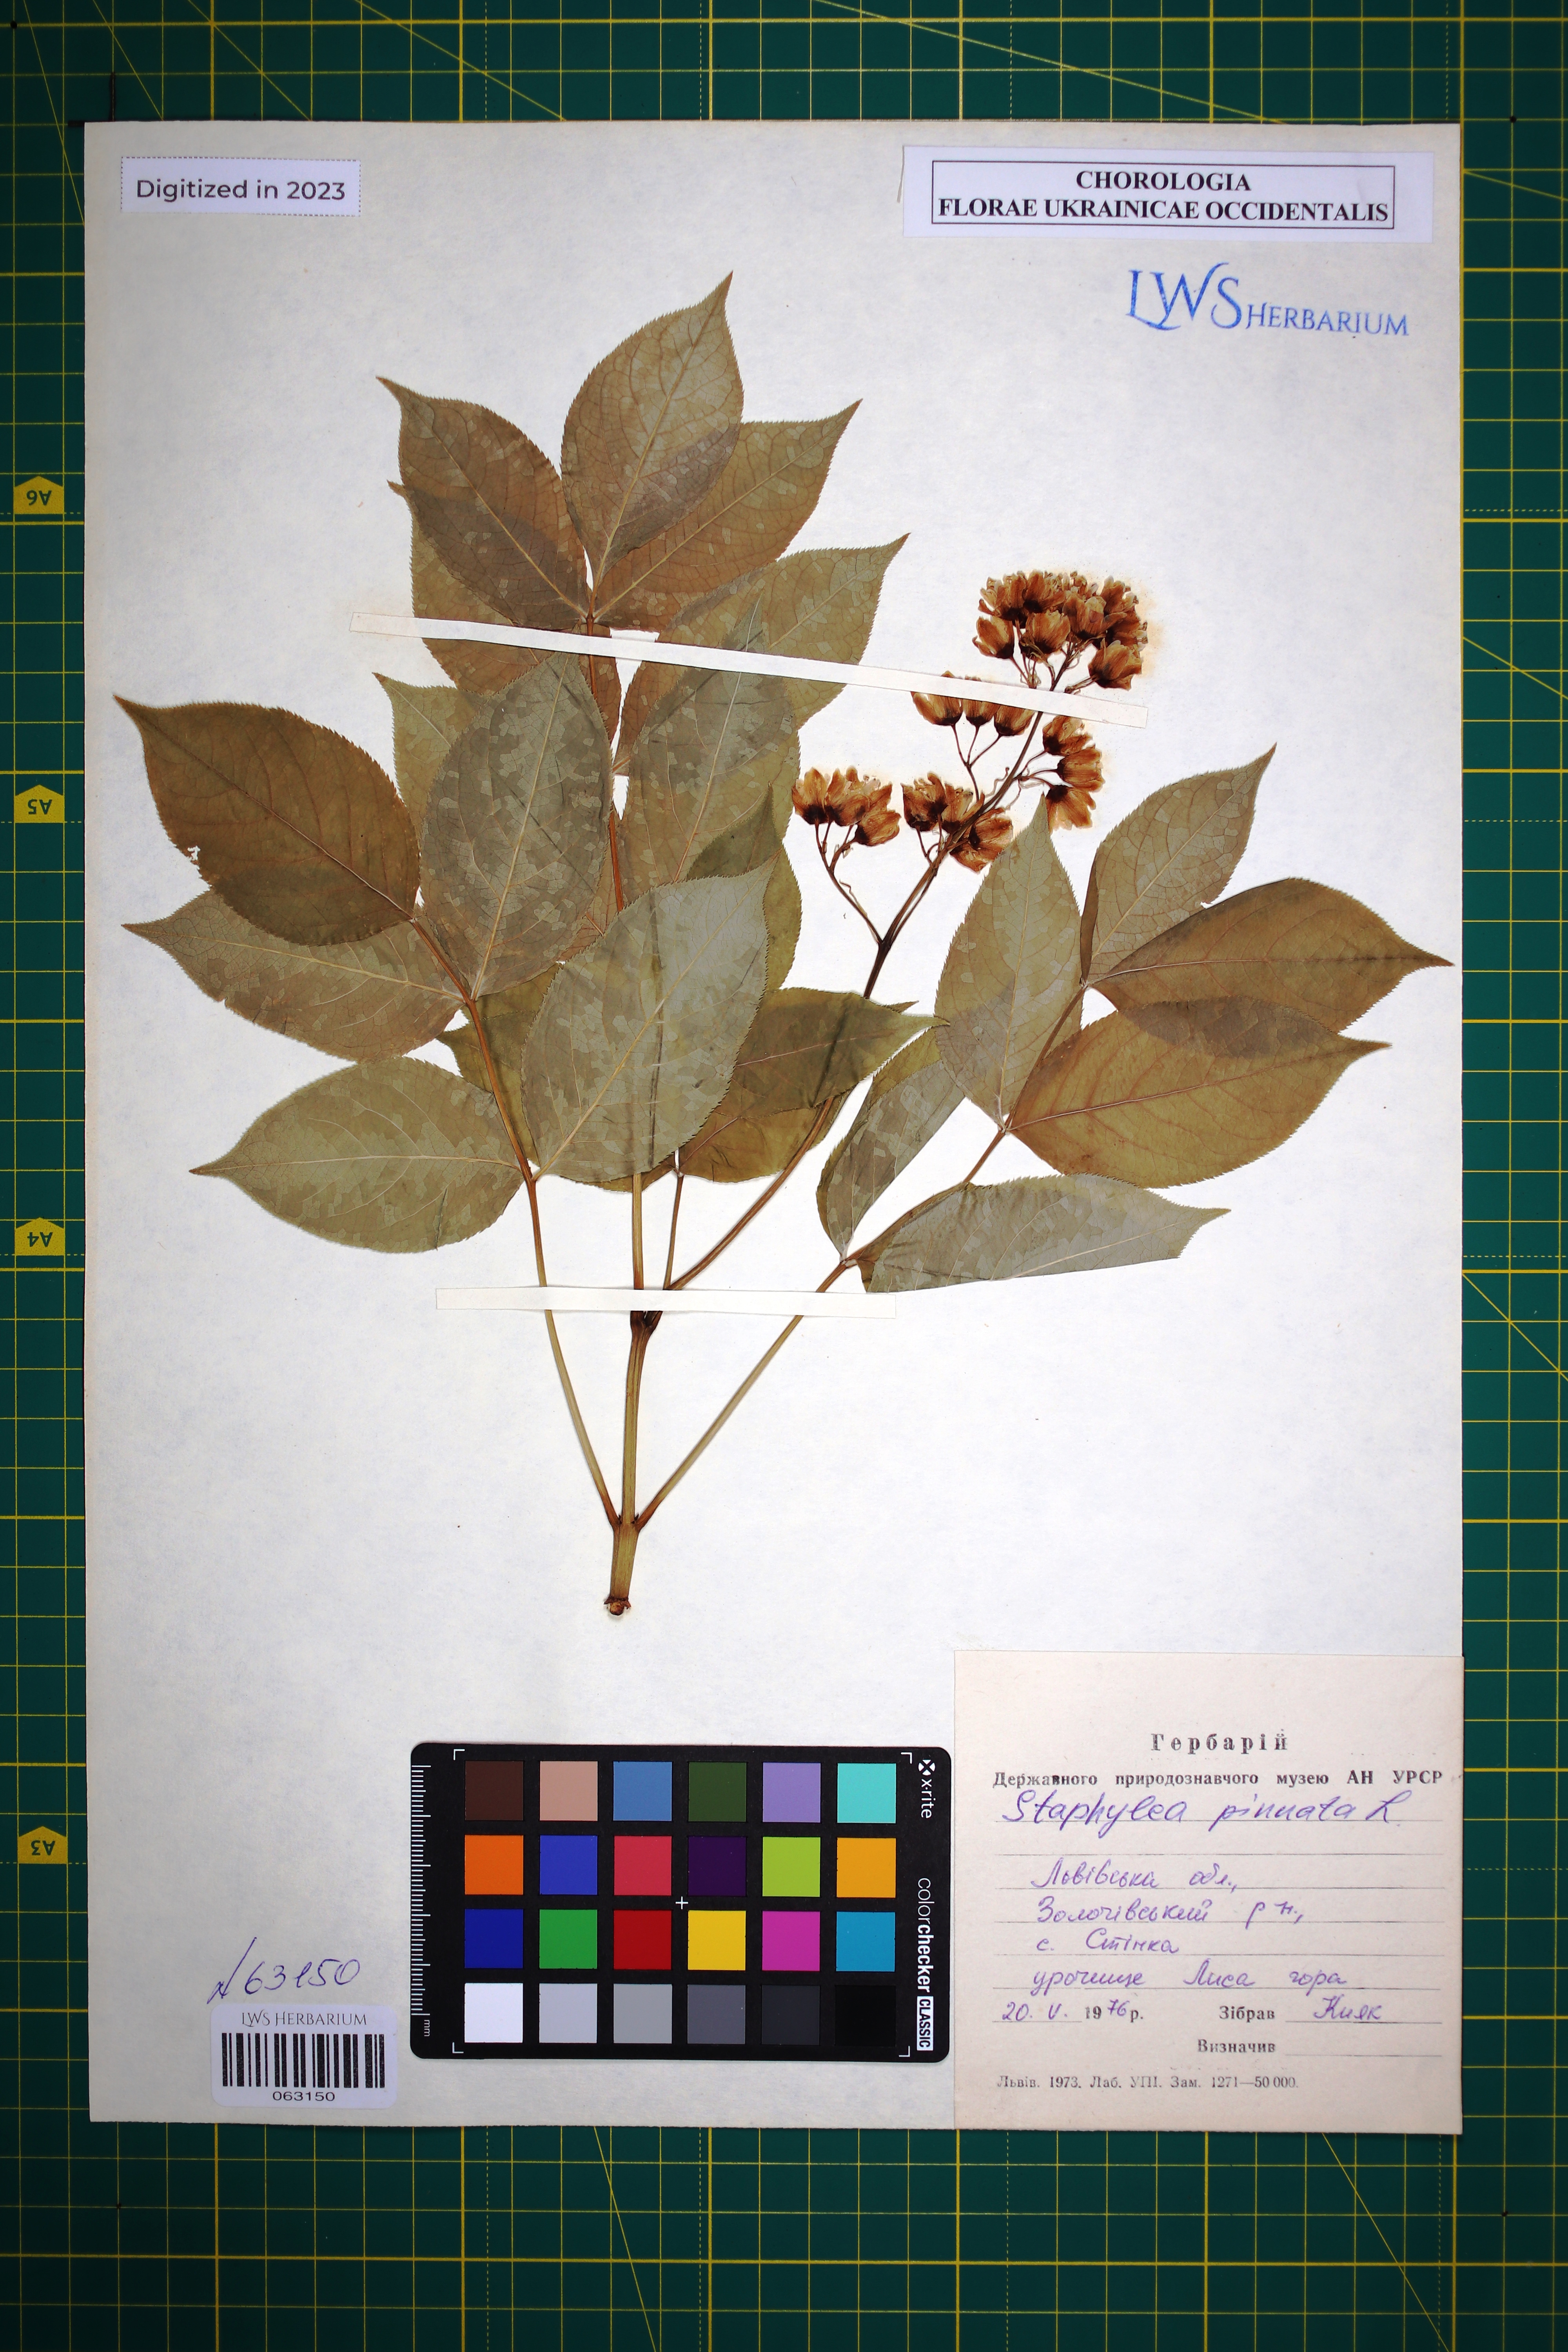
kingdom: Plantae
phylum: Tracheophyta
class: Magnoliopsida
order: Crossosomatales
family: Staphyleaceae
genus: Staphylea
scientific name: Staphylea pinnata
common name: Bladdernut
